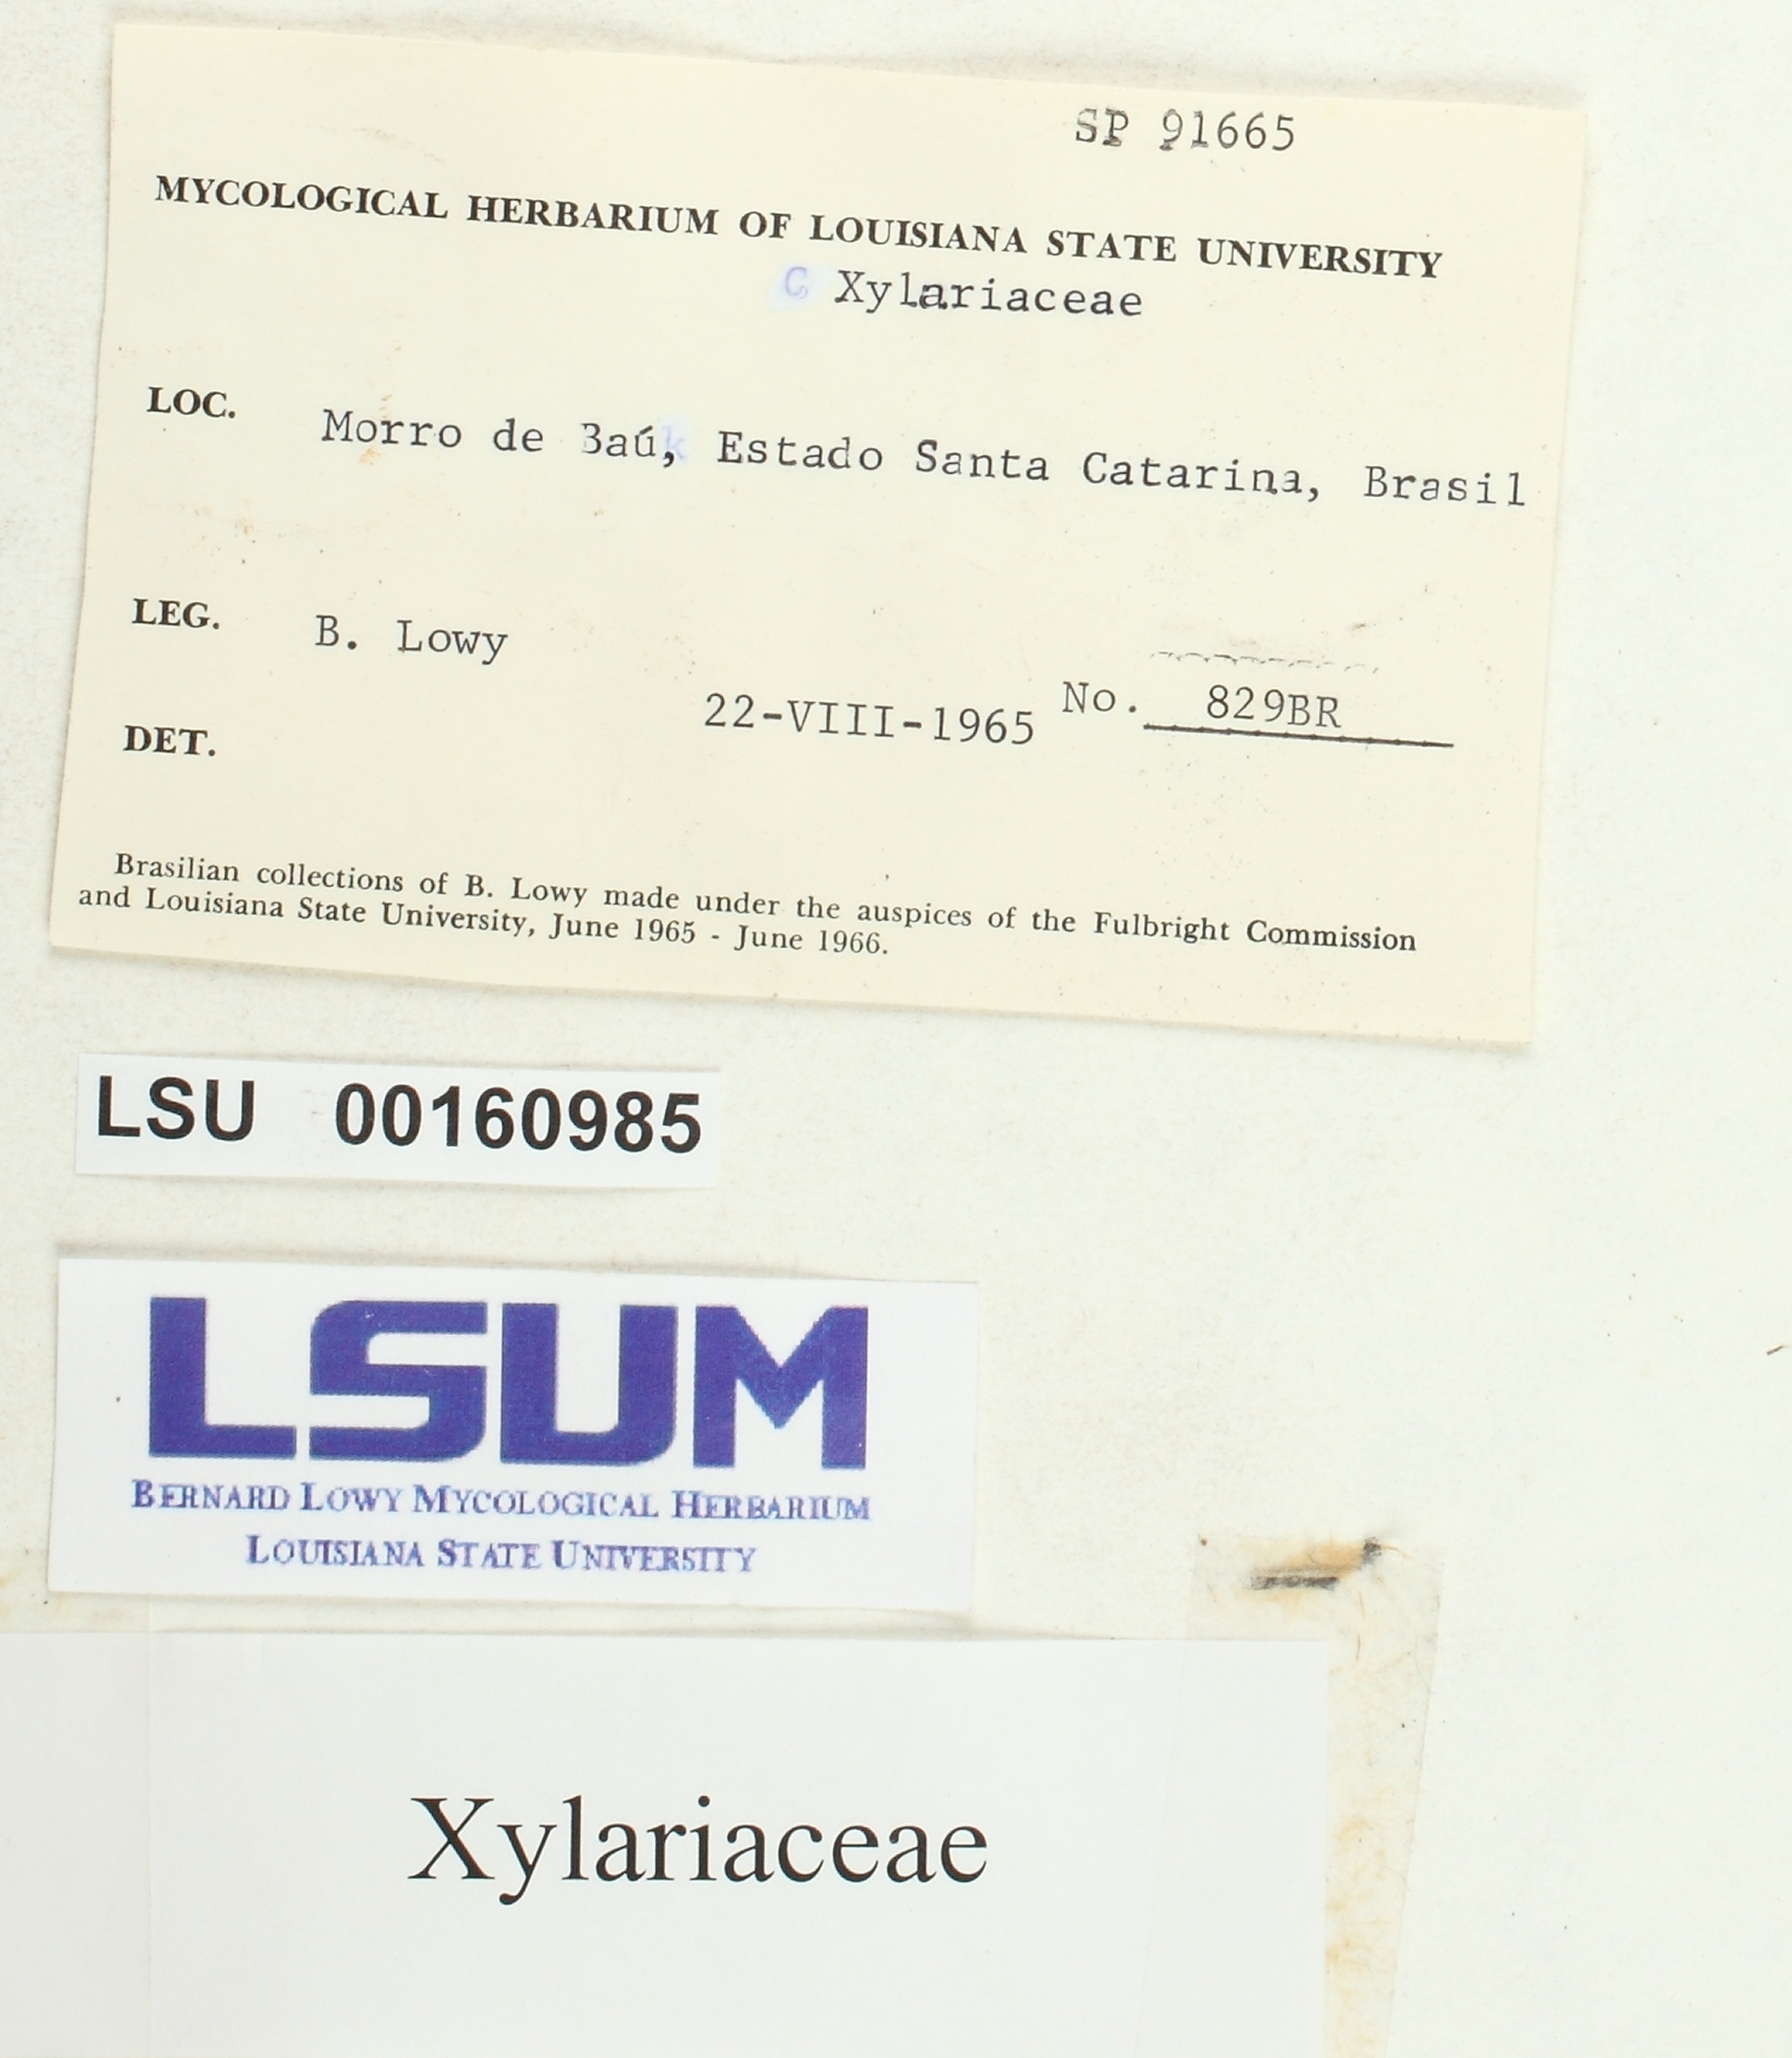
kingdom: Fungi
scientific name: Fungi
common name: Fungi
